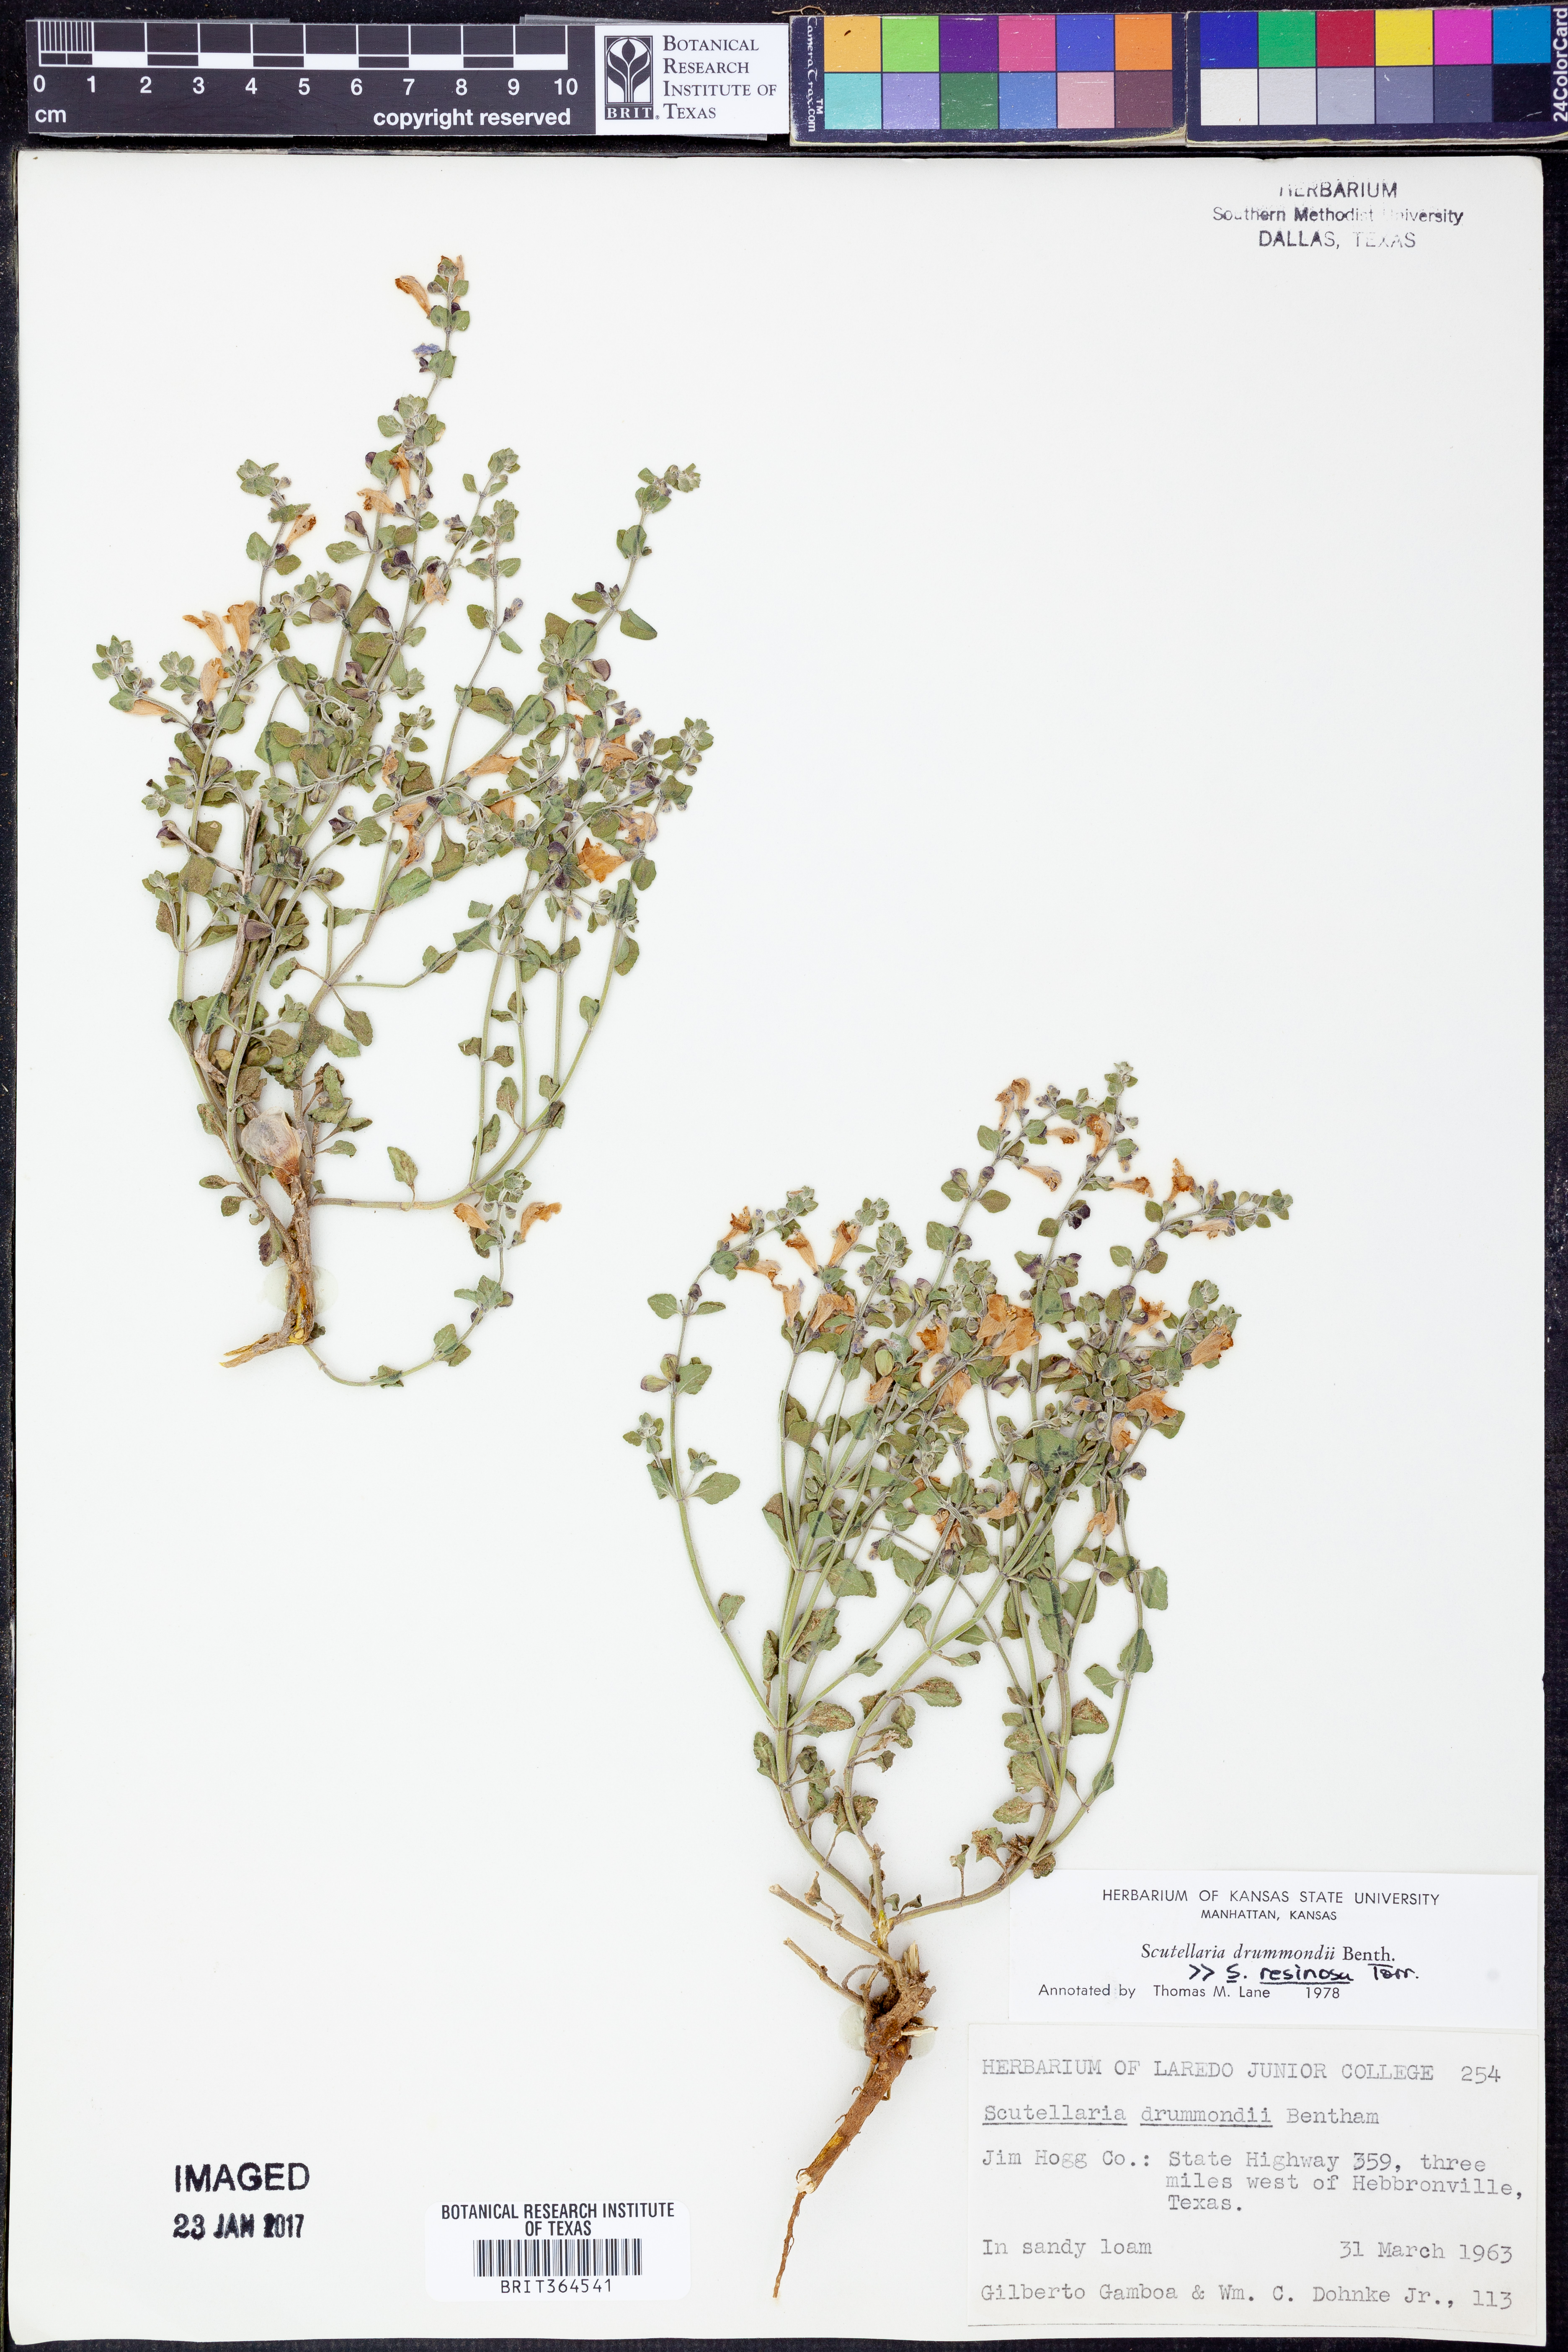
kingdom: Plantae
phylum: Tracheophyta
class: Magnoliopsida
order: Lamiales
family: Lamiaceae
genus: Scutellaria
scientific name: Scutellaria drummondii
